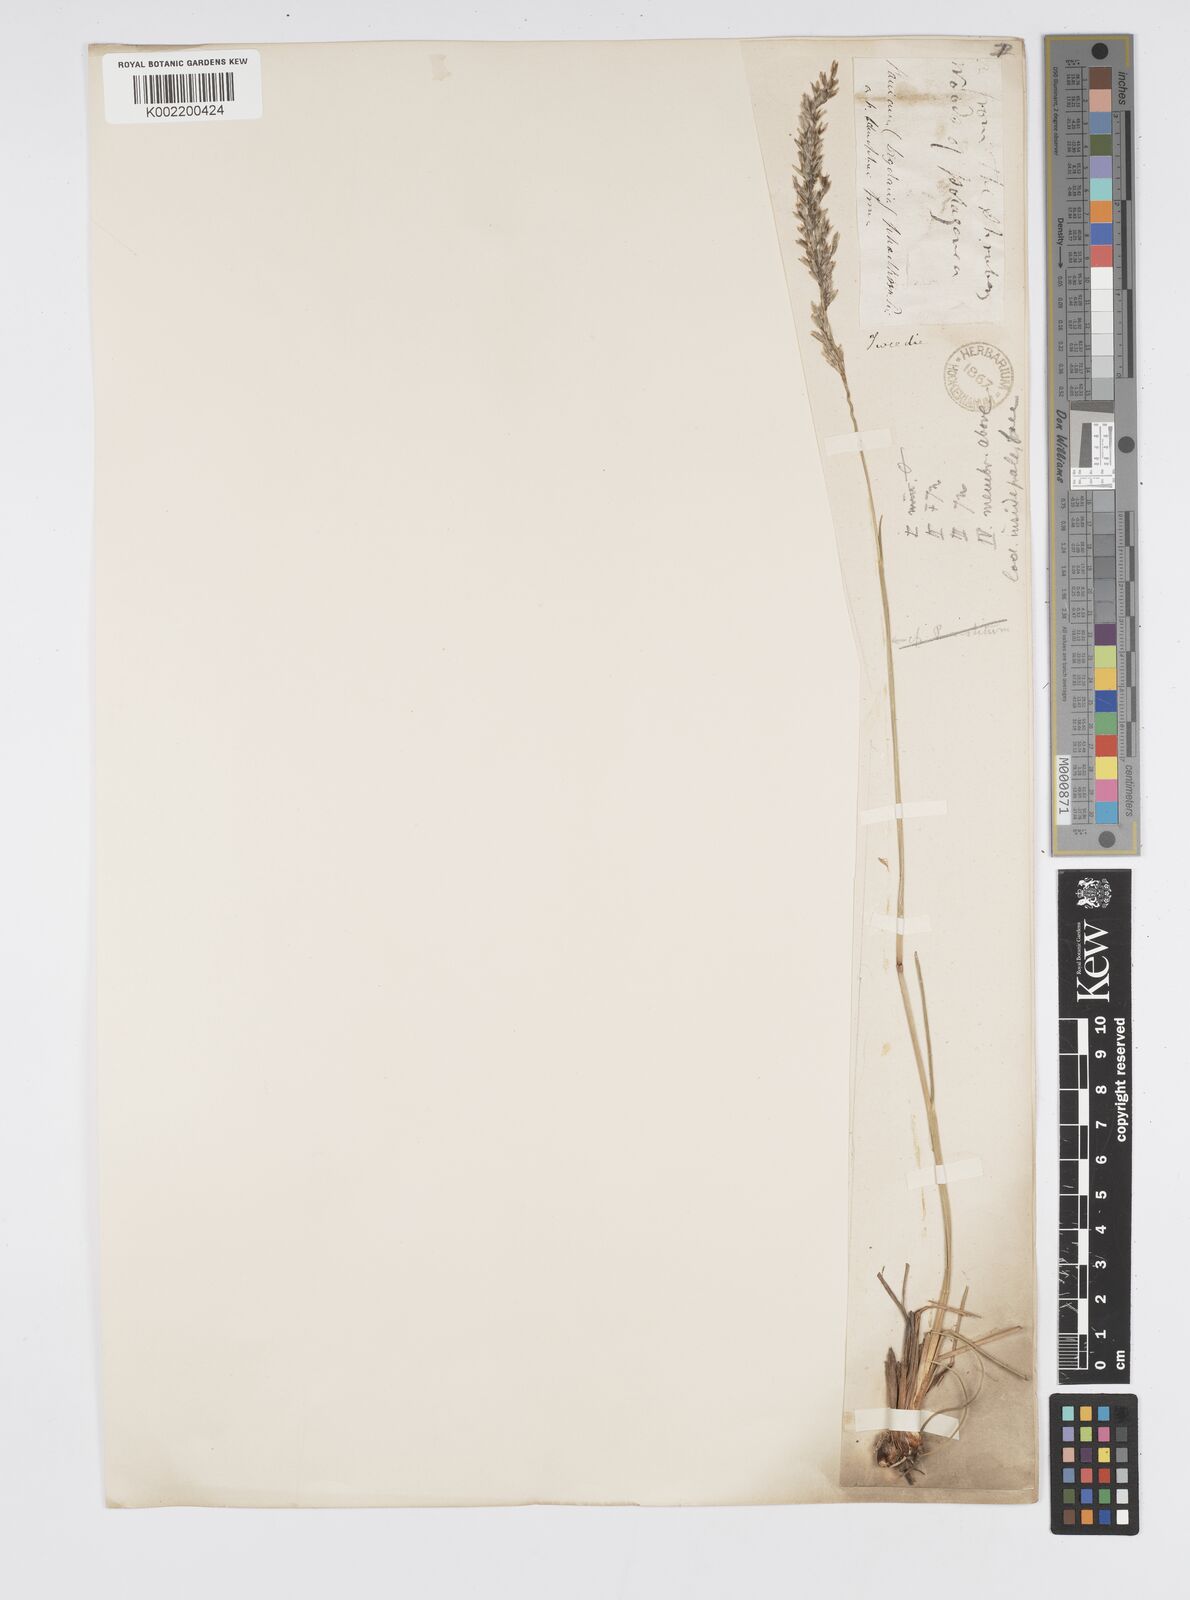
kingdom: Plantae
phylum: Tracheophyta
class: Liliopsida
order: Poales
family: Poaceae
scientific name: Poaceae
